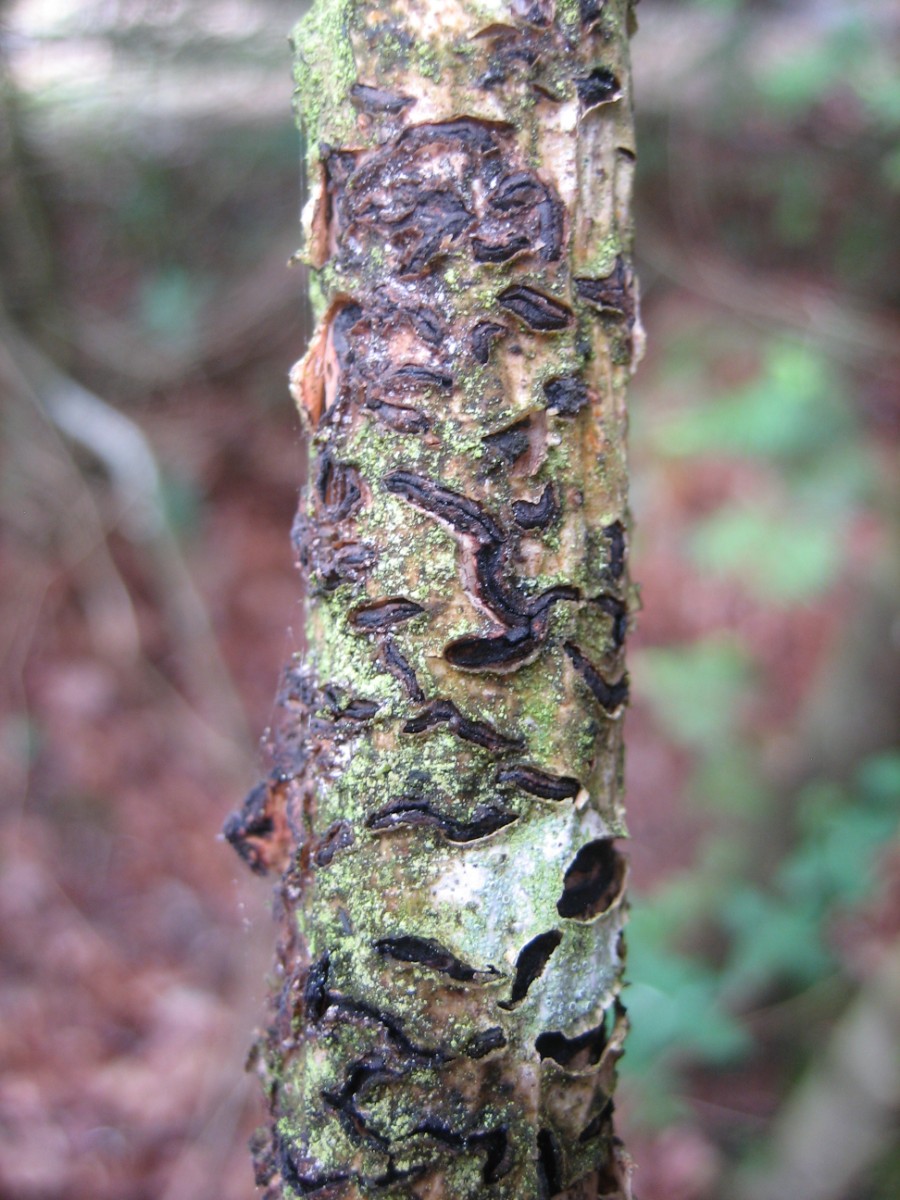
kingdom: Fungi
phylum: Ascomycota
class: Leotiomycetes
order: Rhytismatales
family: Rhytismataceae
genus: Colpoma
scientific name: Colpoma quercinum
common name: ege-sprækkeskive
